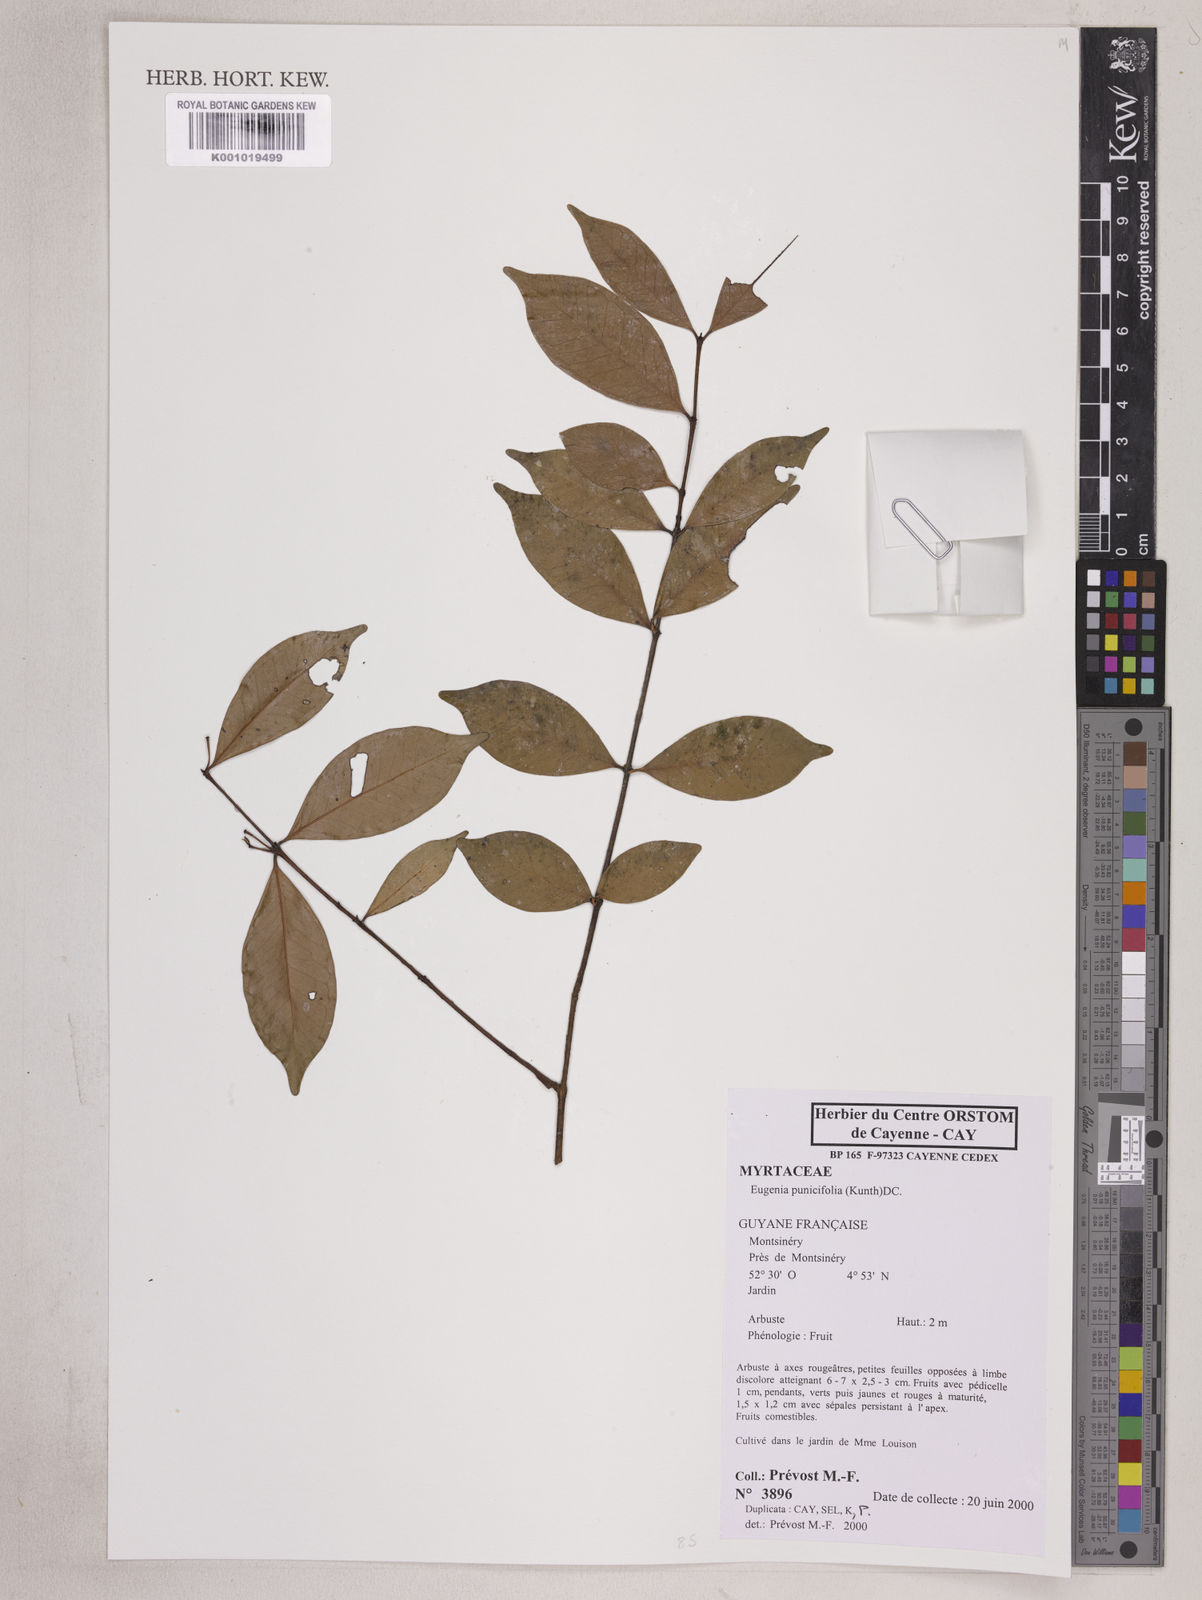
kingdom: Plantae
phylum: Tracheophyta
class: Magnoliopsida
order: Myrtales
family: Myrtaceae
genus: Eugenia
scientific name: Eugenia punicifolia
